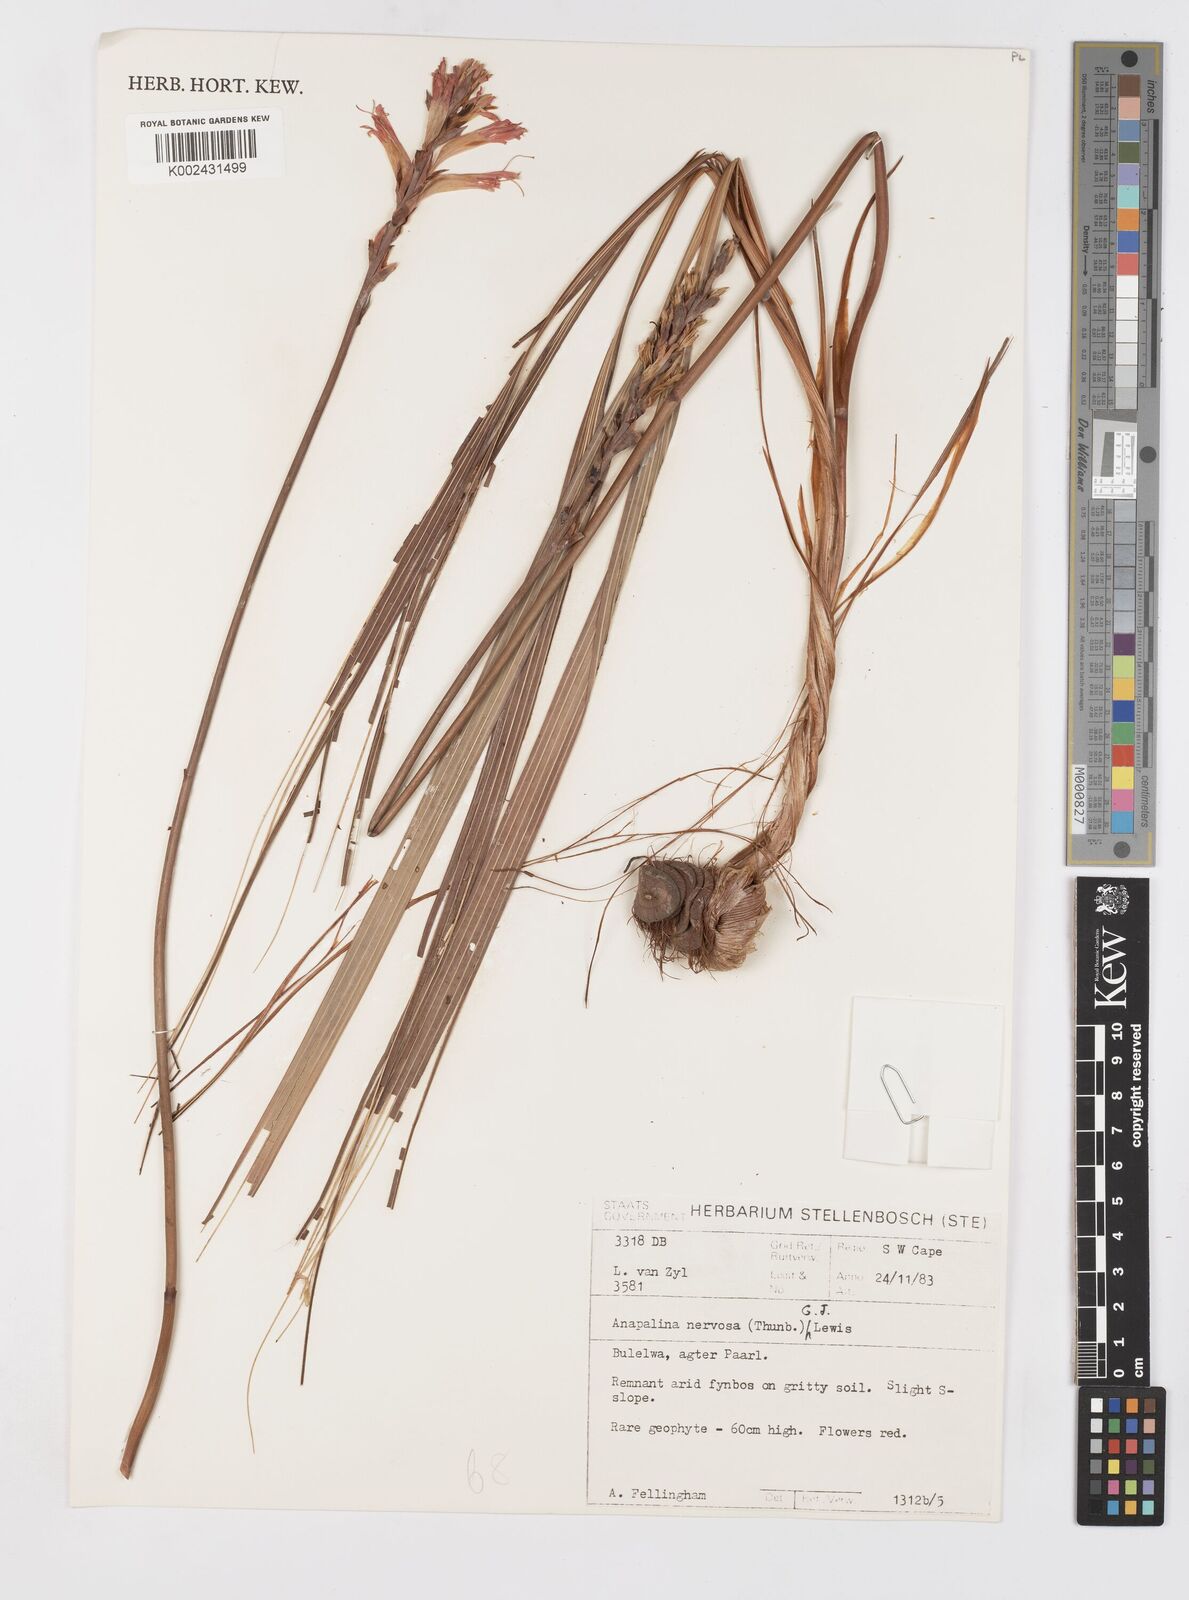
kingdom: Plantae
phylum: Tracheophyta
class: Liliopsida
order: Asparagales
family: Iridaceae
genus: Tritoniopsis
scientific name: Tritoniopsis nervosa
